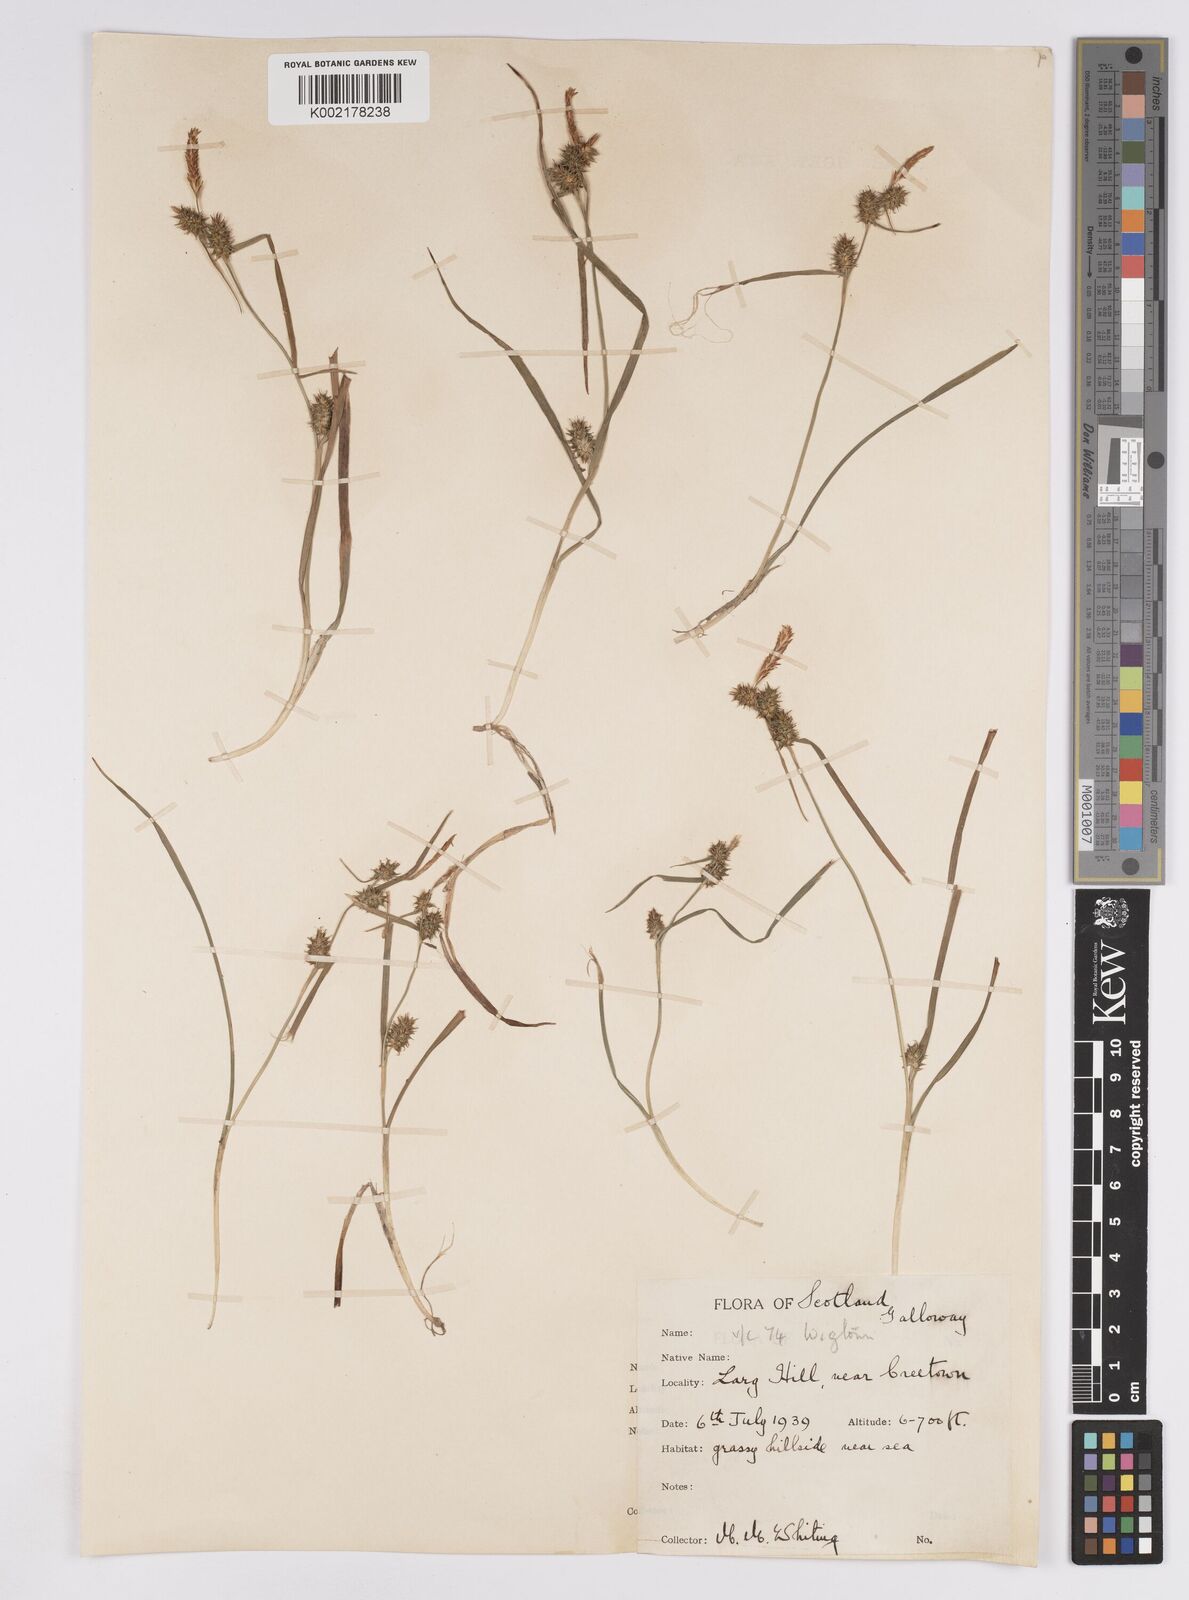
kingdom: Plantae
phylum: Tracheophyta
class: Liliopsida
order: Poales
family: Cyperaceae
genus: Carex
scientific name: Carex demissa
